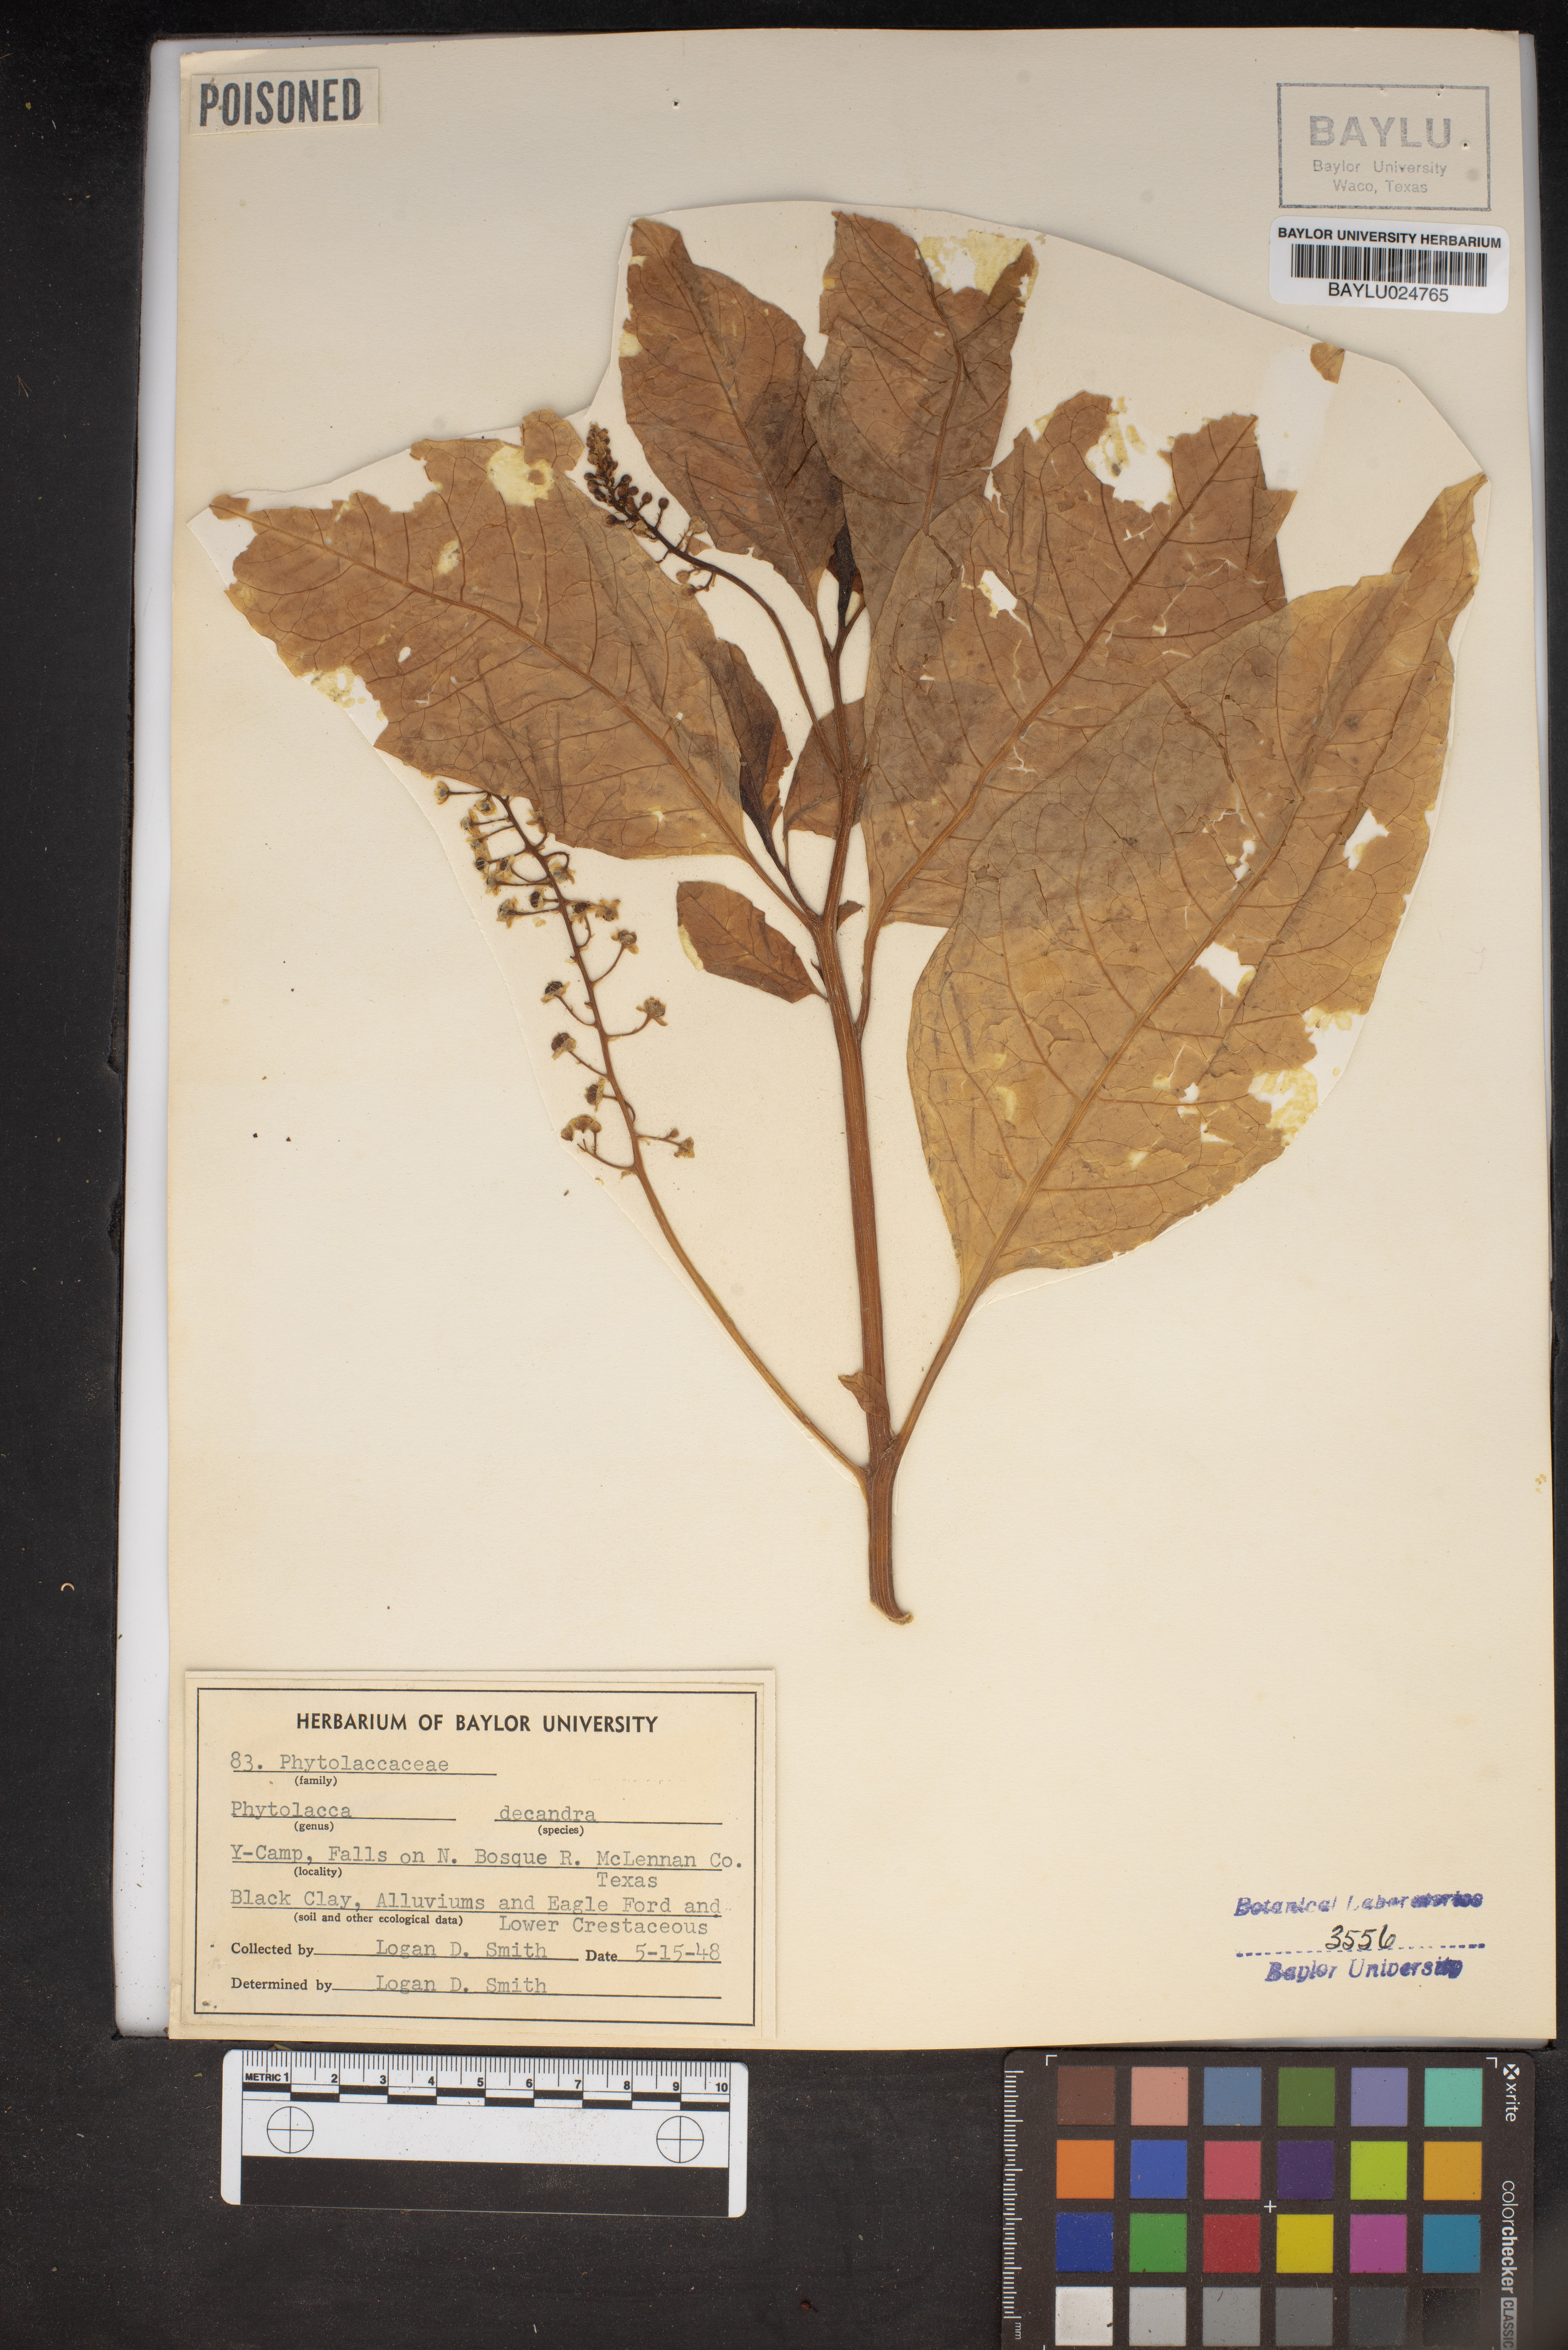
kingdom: Plantae
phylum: Tracheophyta
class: Magnoliopsida
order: Caryophyllales
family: Phytolaccaceae
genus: Phytolacca
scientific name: Phytolacca americana
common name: American pokeweed
